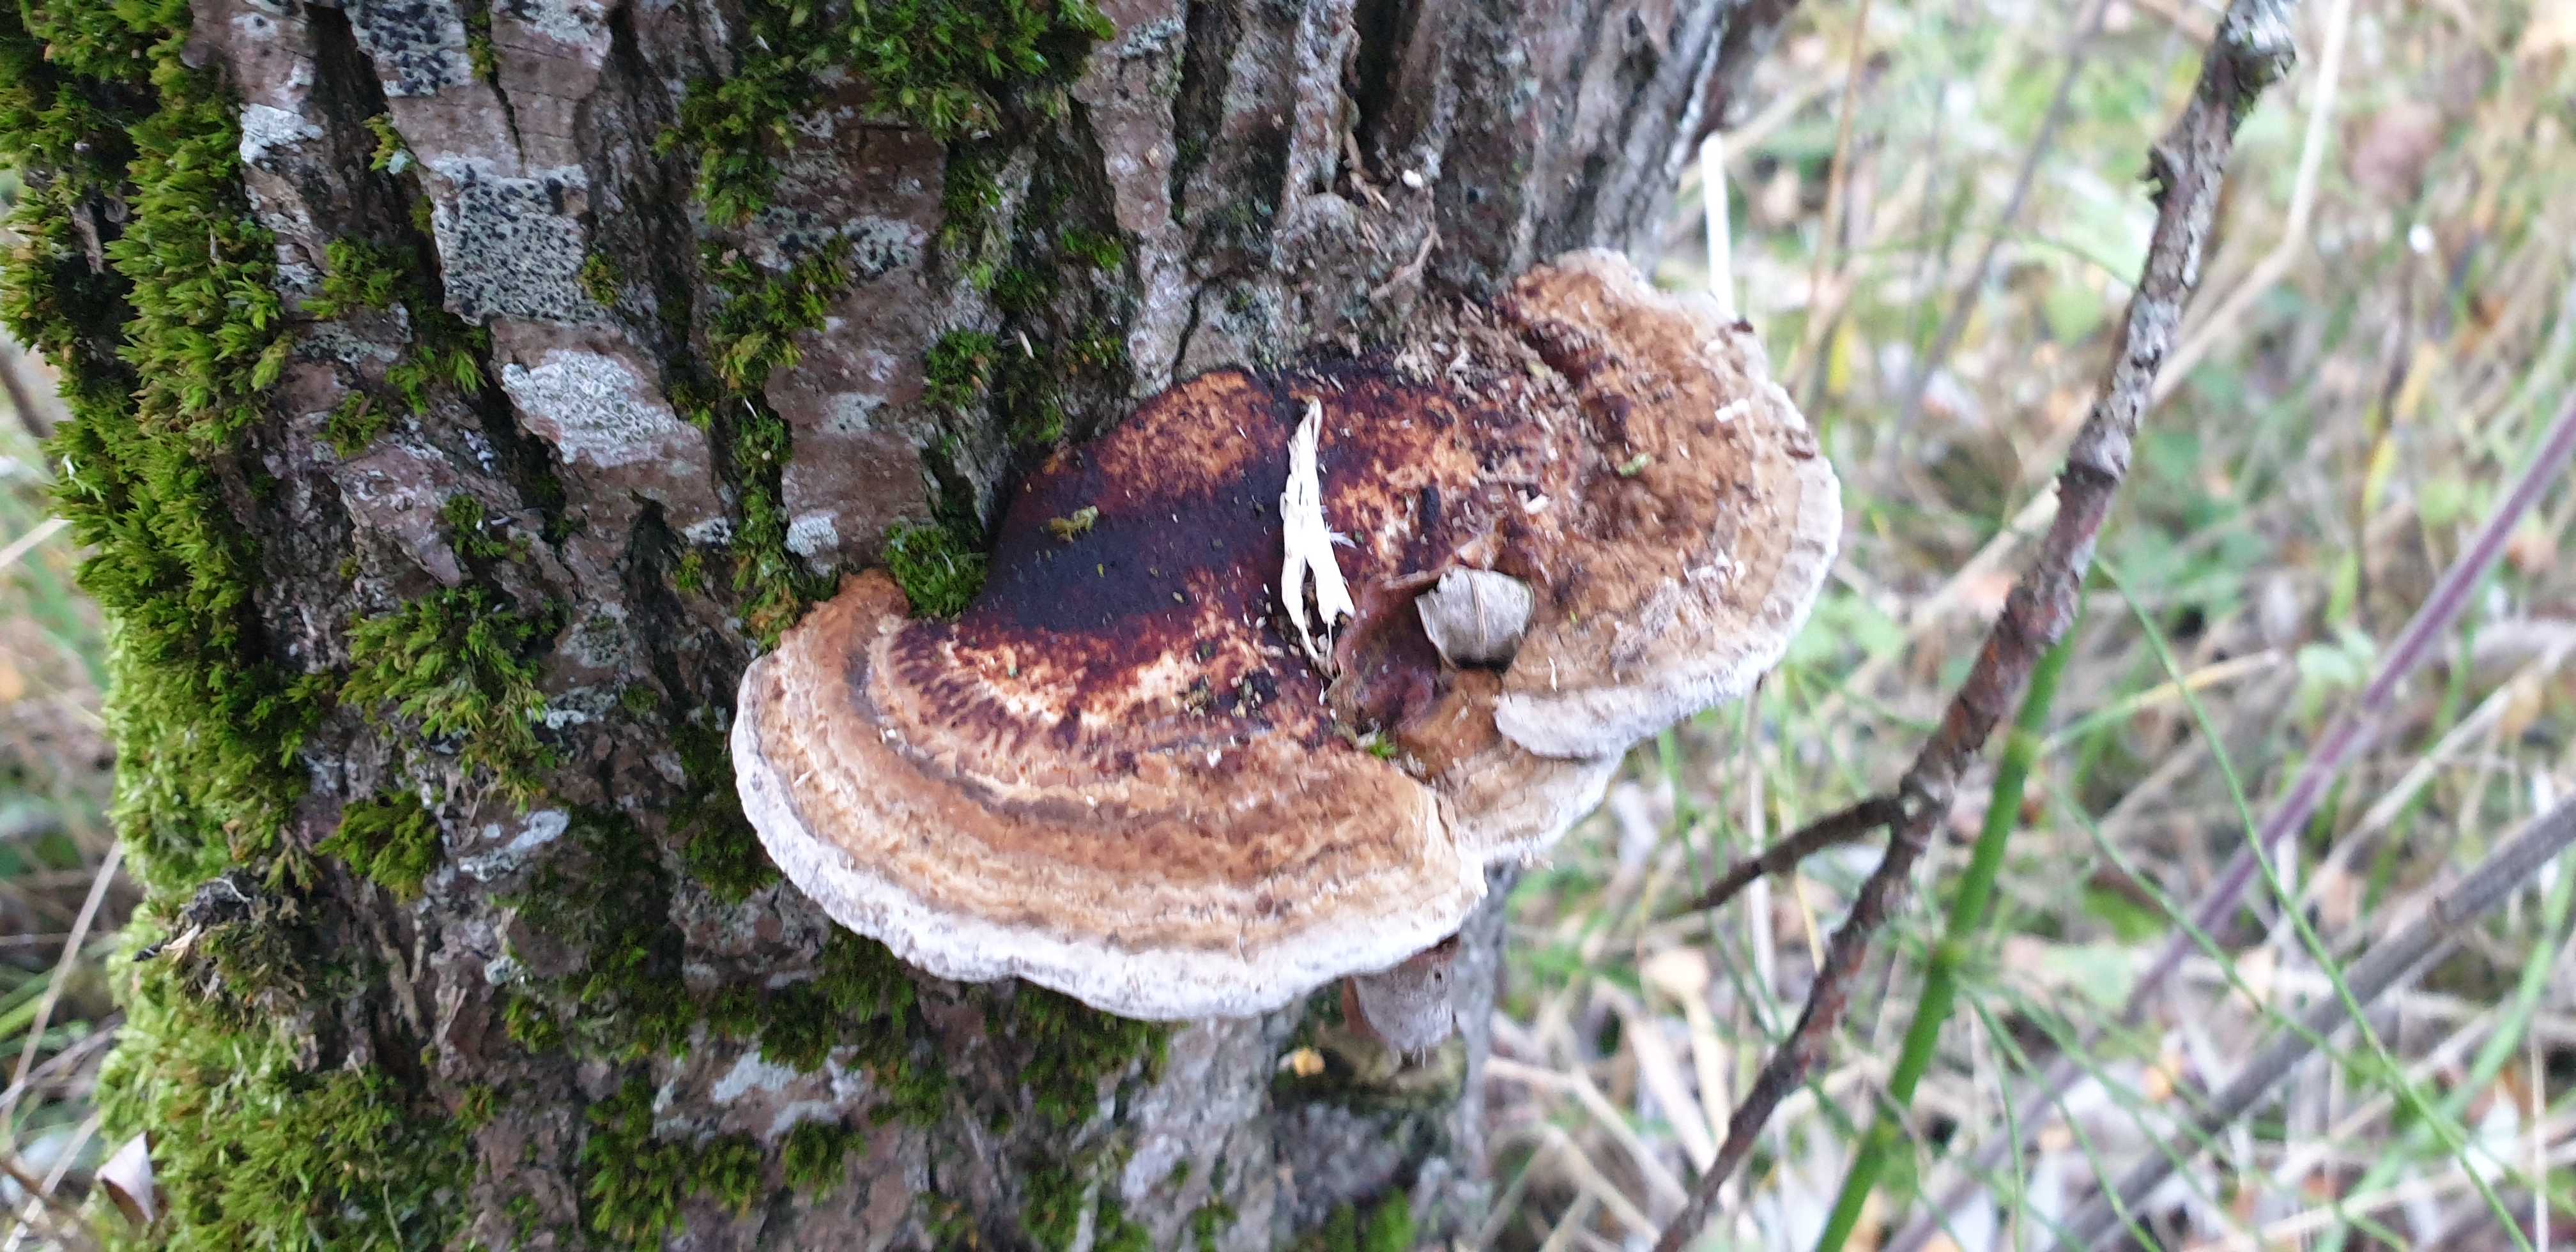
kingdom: Fungi
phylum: Basidiomycota
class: Agaricomycetes
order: Polyporales
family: Polyporaceae
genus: Daedaleopsis
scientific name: Daedaleopsis confragosa
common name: rødmende læderporesvamp
